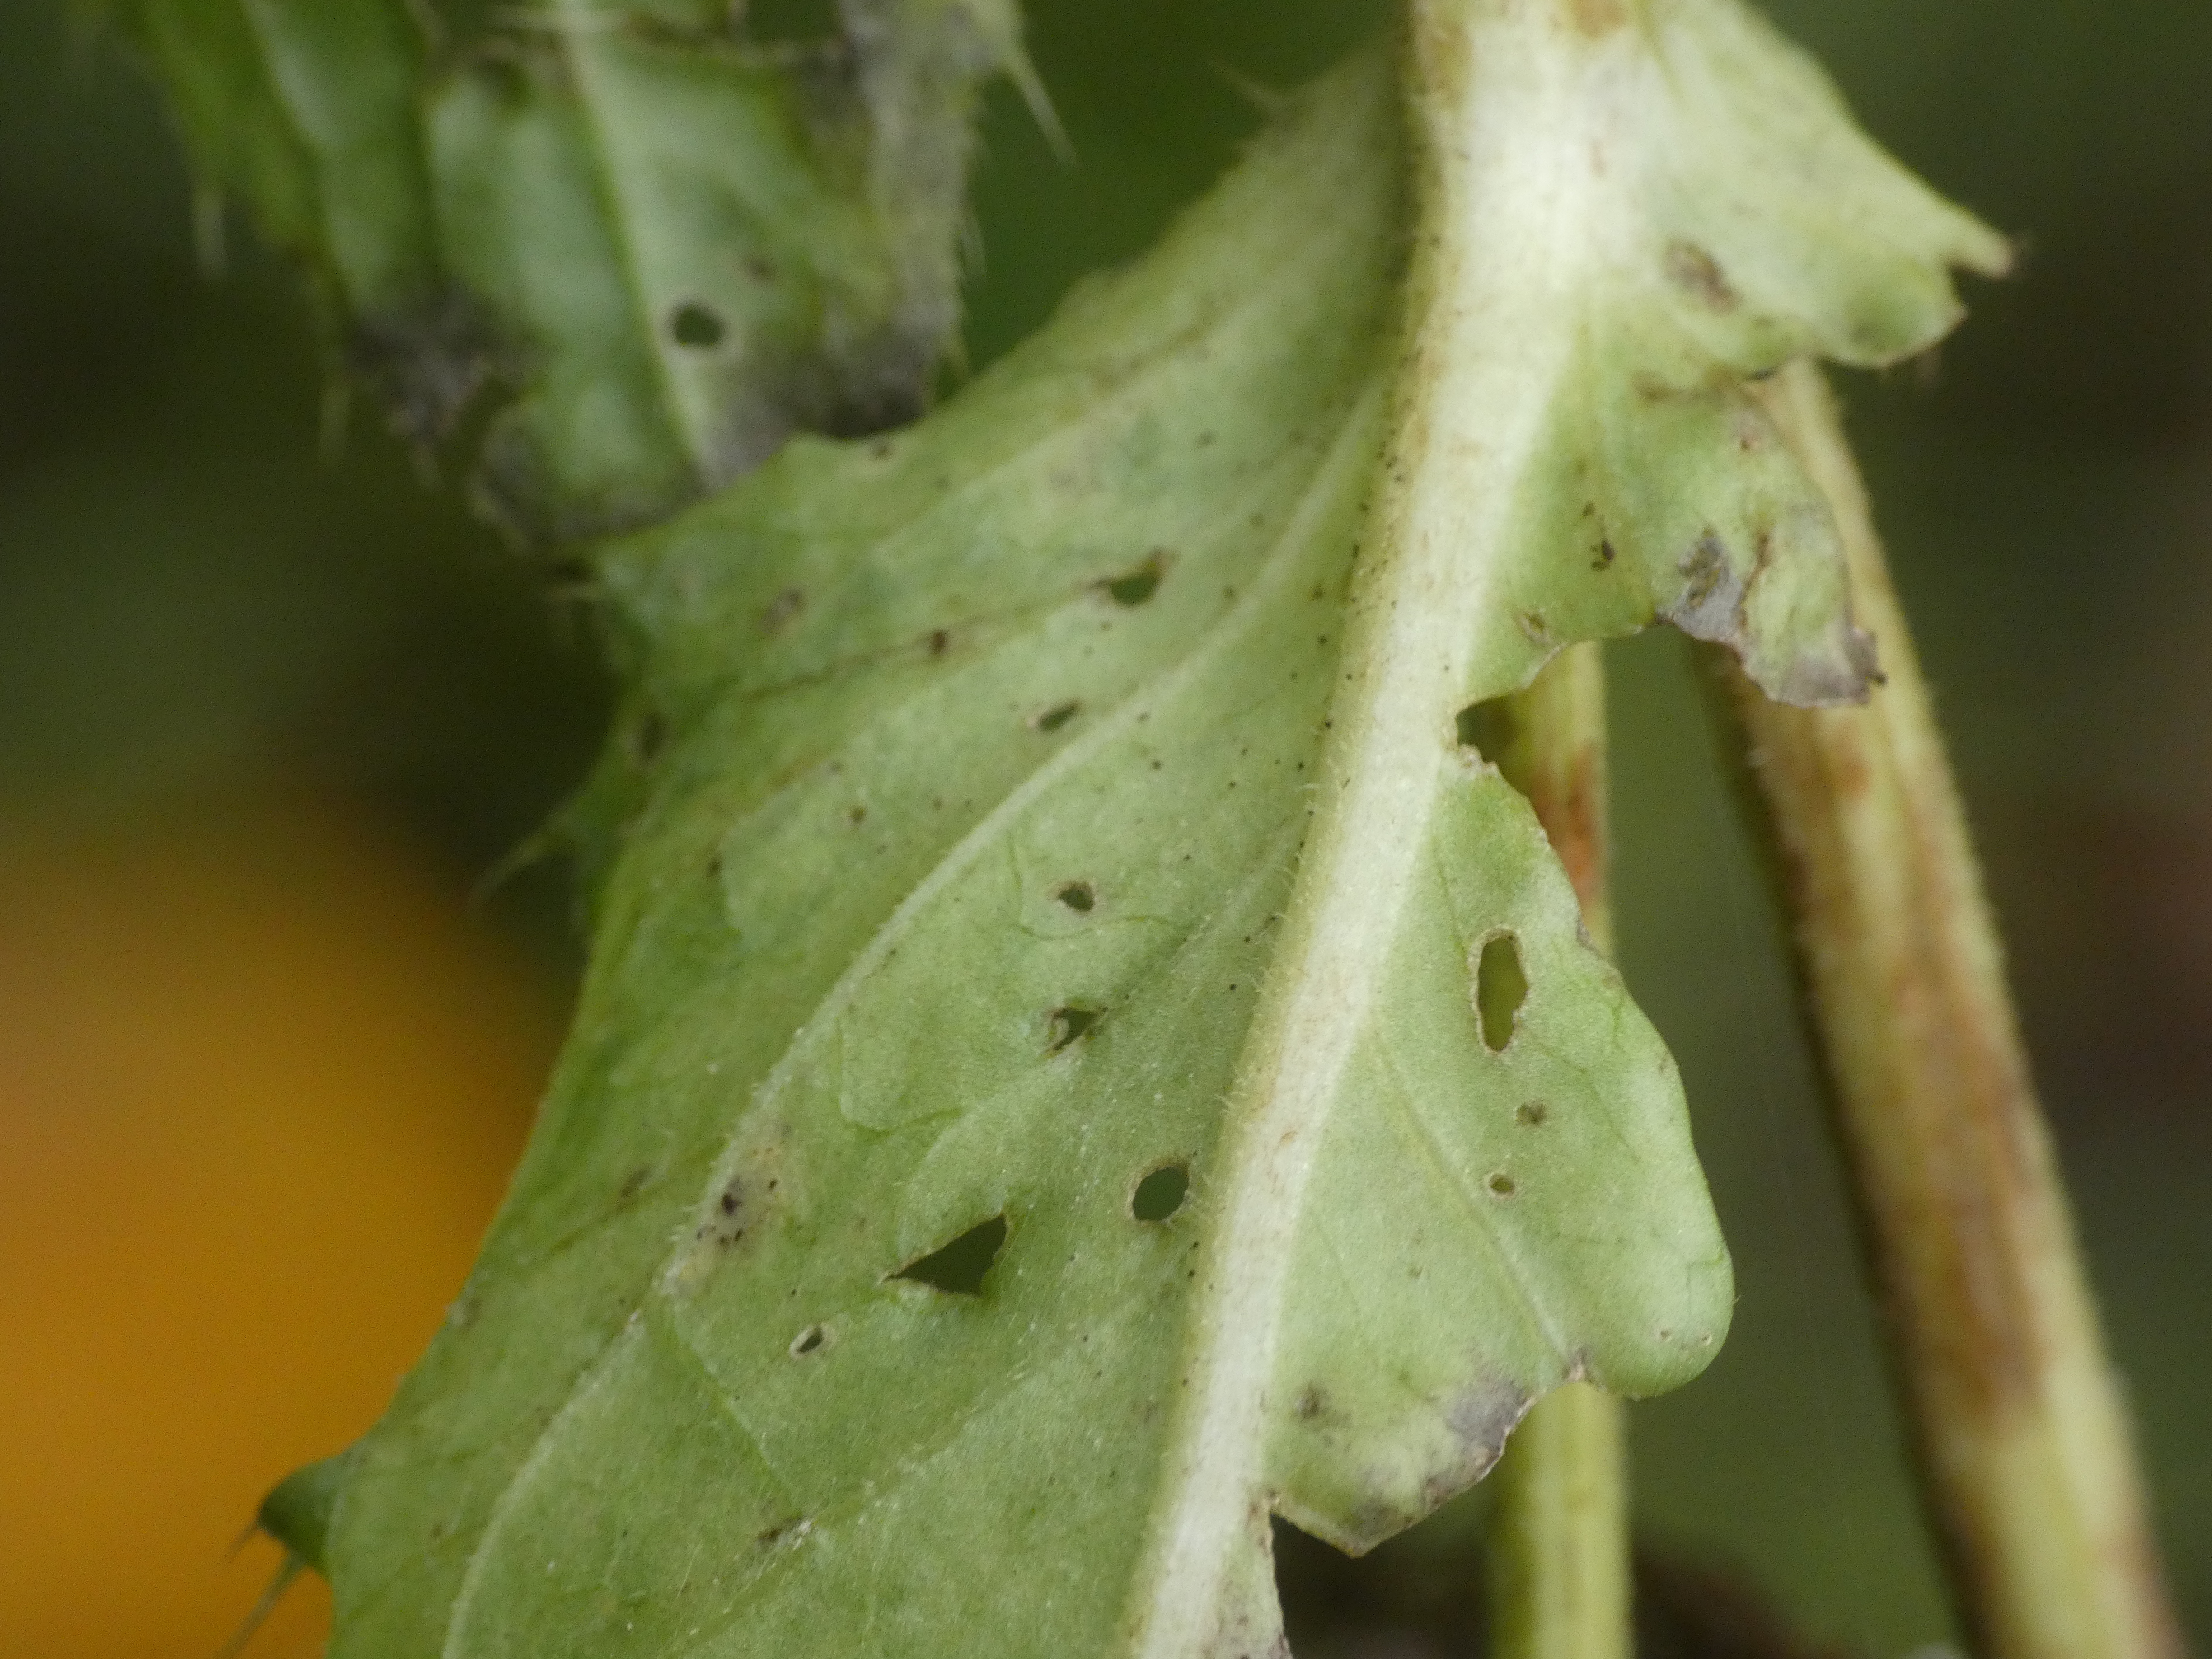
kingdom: Plantae
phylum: Tracheophyta
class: Magnoliopsida
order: Asterales
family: Asteraceae
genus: Cirsium
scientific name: Cirsium oleraceum
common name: Kål-tidsel
